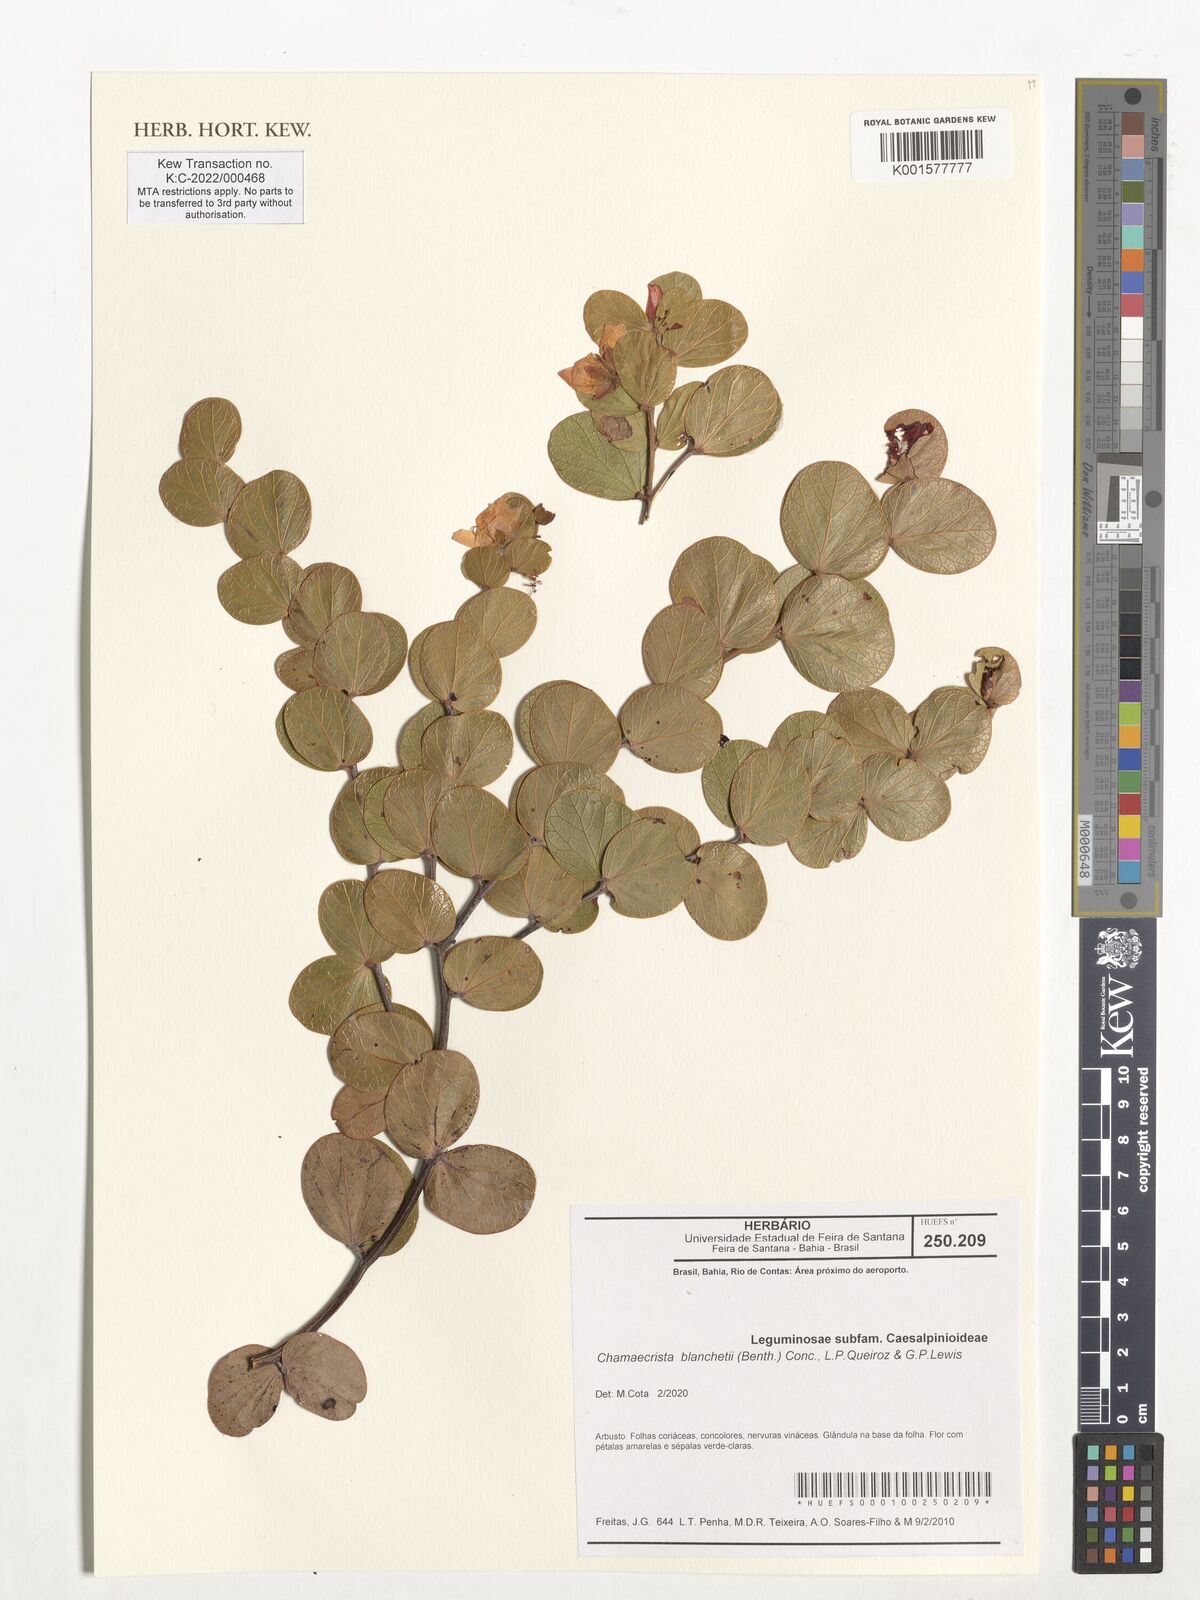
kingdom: Plantae
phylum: Tracheophyta
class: Magnoliopsida
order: Fabales
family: Fabaceae
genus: Chamaecrista
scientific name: Chamaecrista blanchetii
